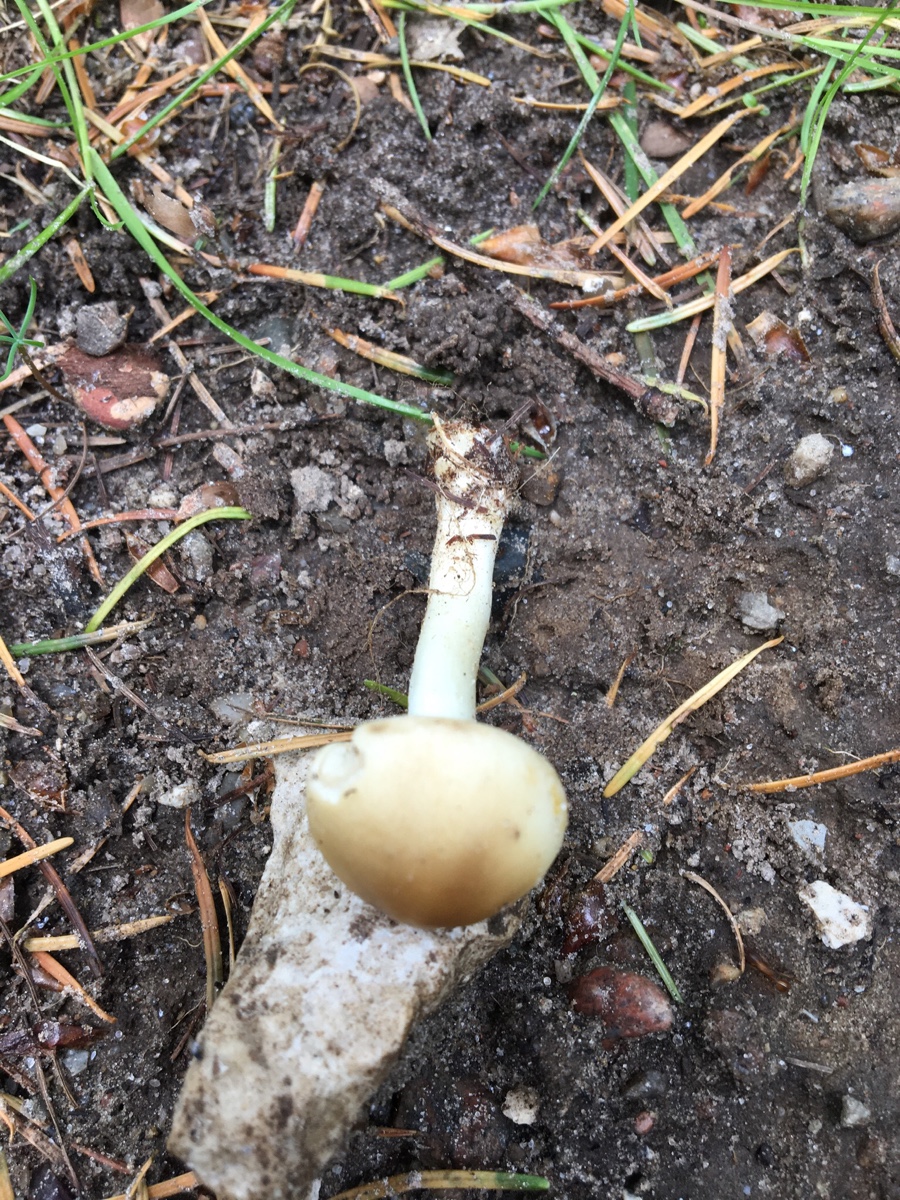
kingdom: Fungi
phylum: Basidiomycota
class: Agaricomycetes
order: Agaricales
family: Strophariaceae
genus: Agrocybe
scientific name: Agrocybe praecox
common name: tidlig agerhat
